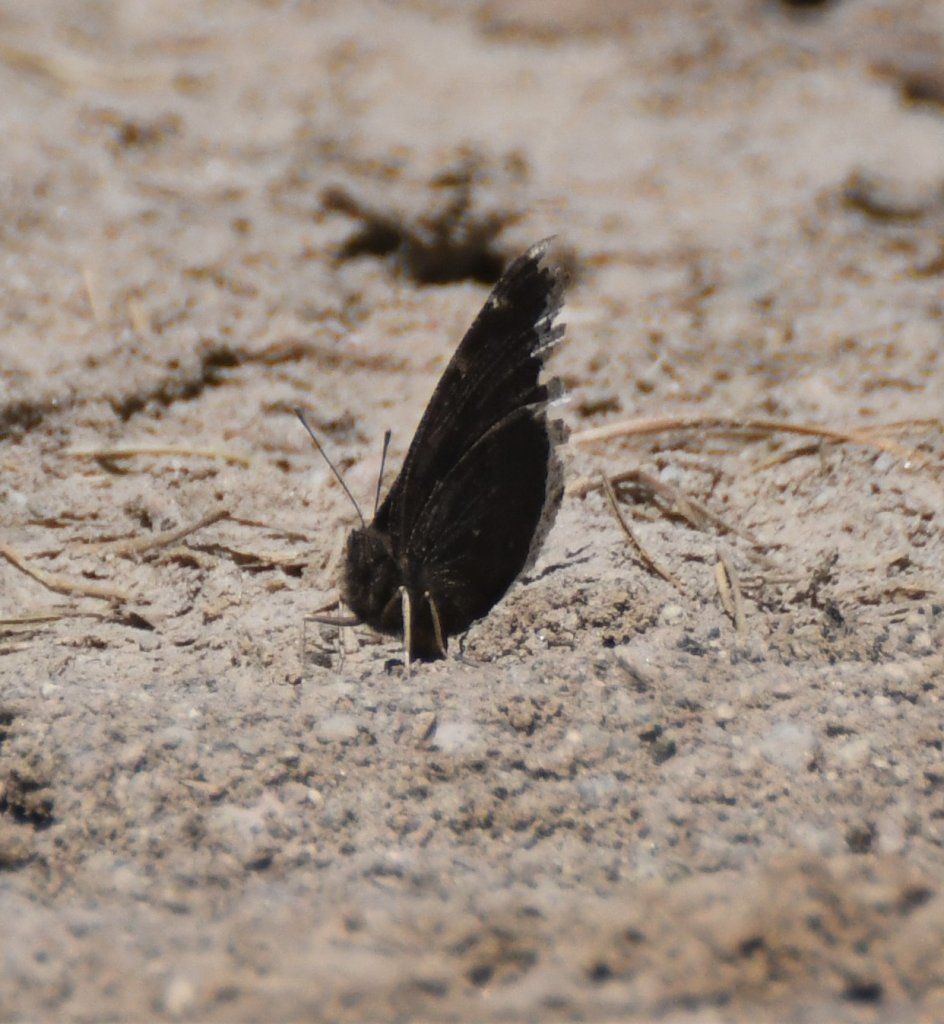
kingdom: Animalia
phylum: Arthropoda
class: Insecta
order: Lepidoptera
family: Nymphalidae
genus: Nymphalis
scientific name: Nymphalis antiopa
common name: Mourning Cloak
